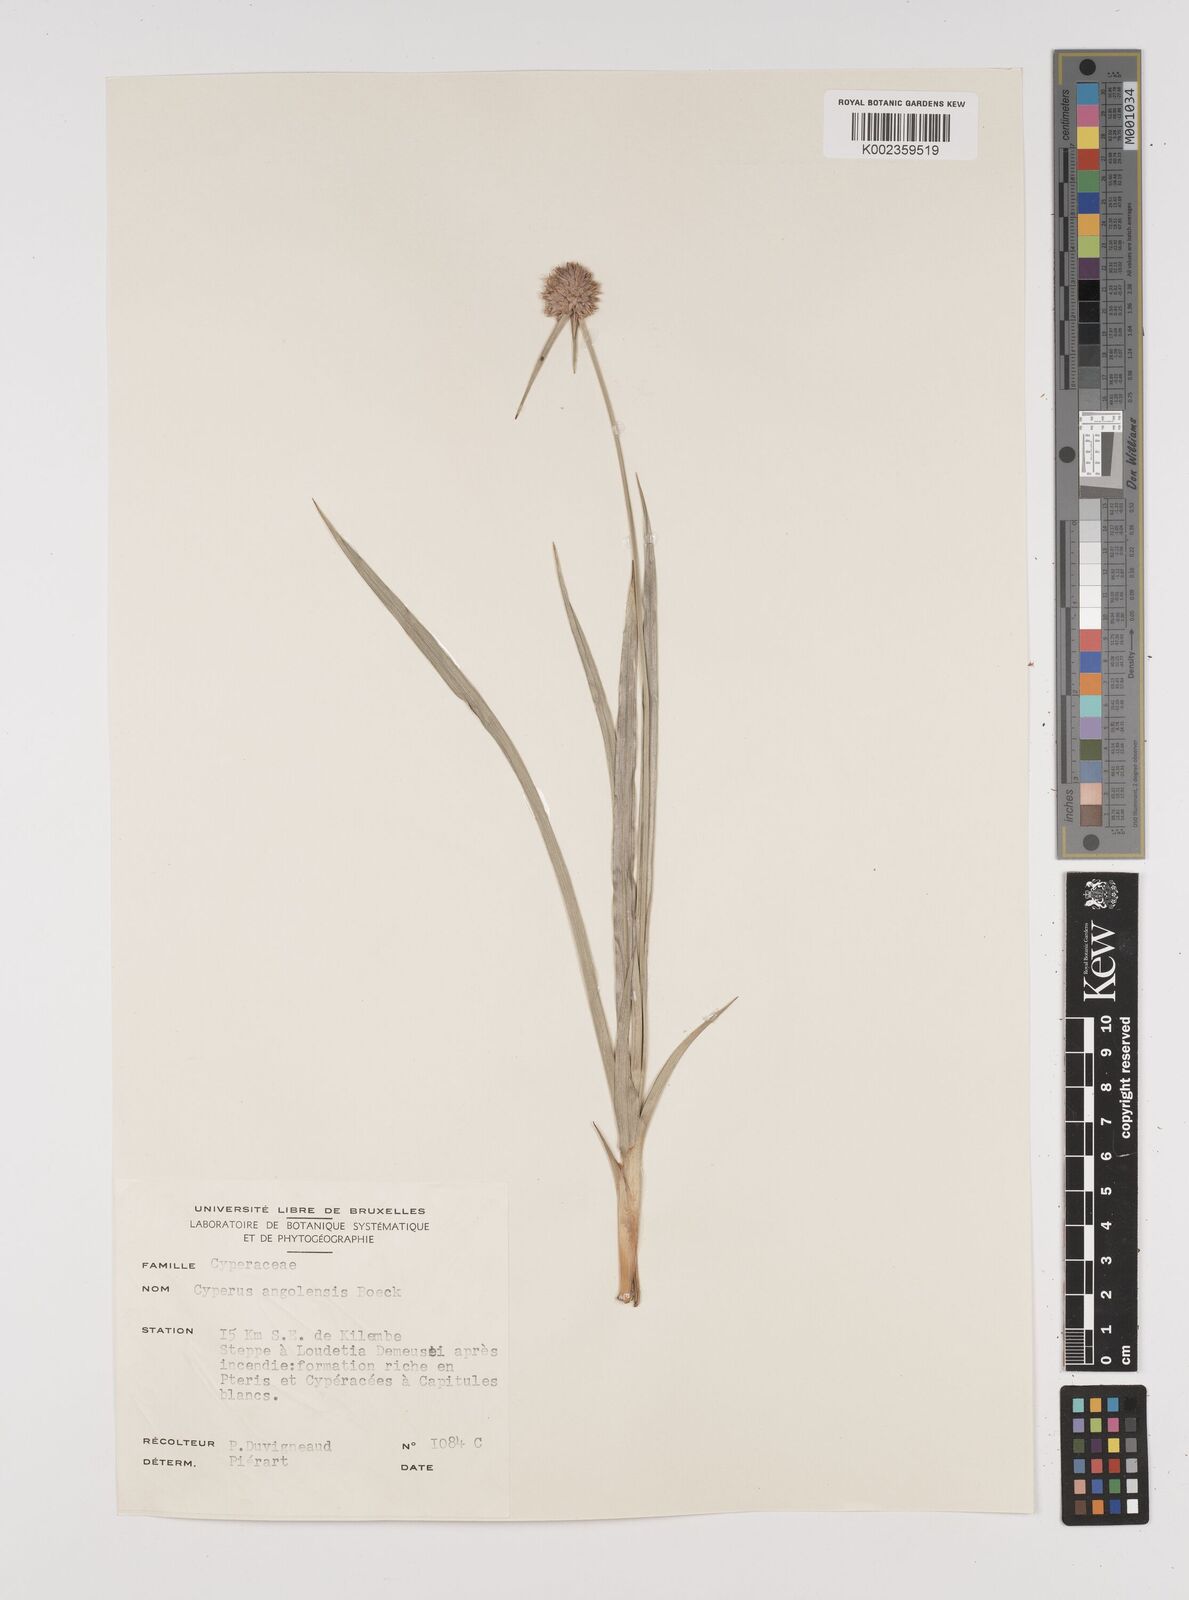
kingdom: Plantae
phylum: Tracheophyta
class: Liliopsida
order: Poales
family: Cyperaceae
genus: Cyperus
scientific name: Cyperus angolensis
